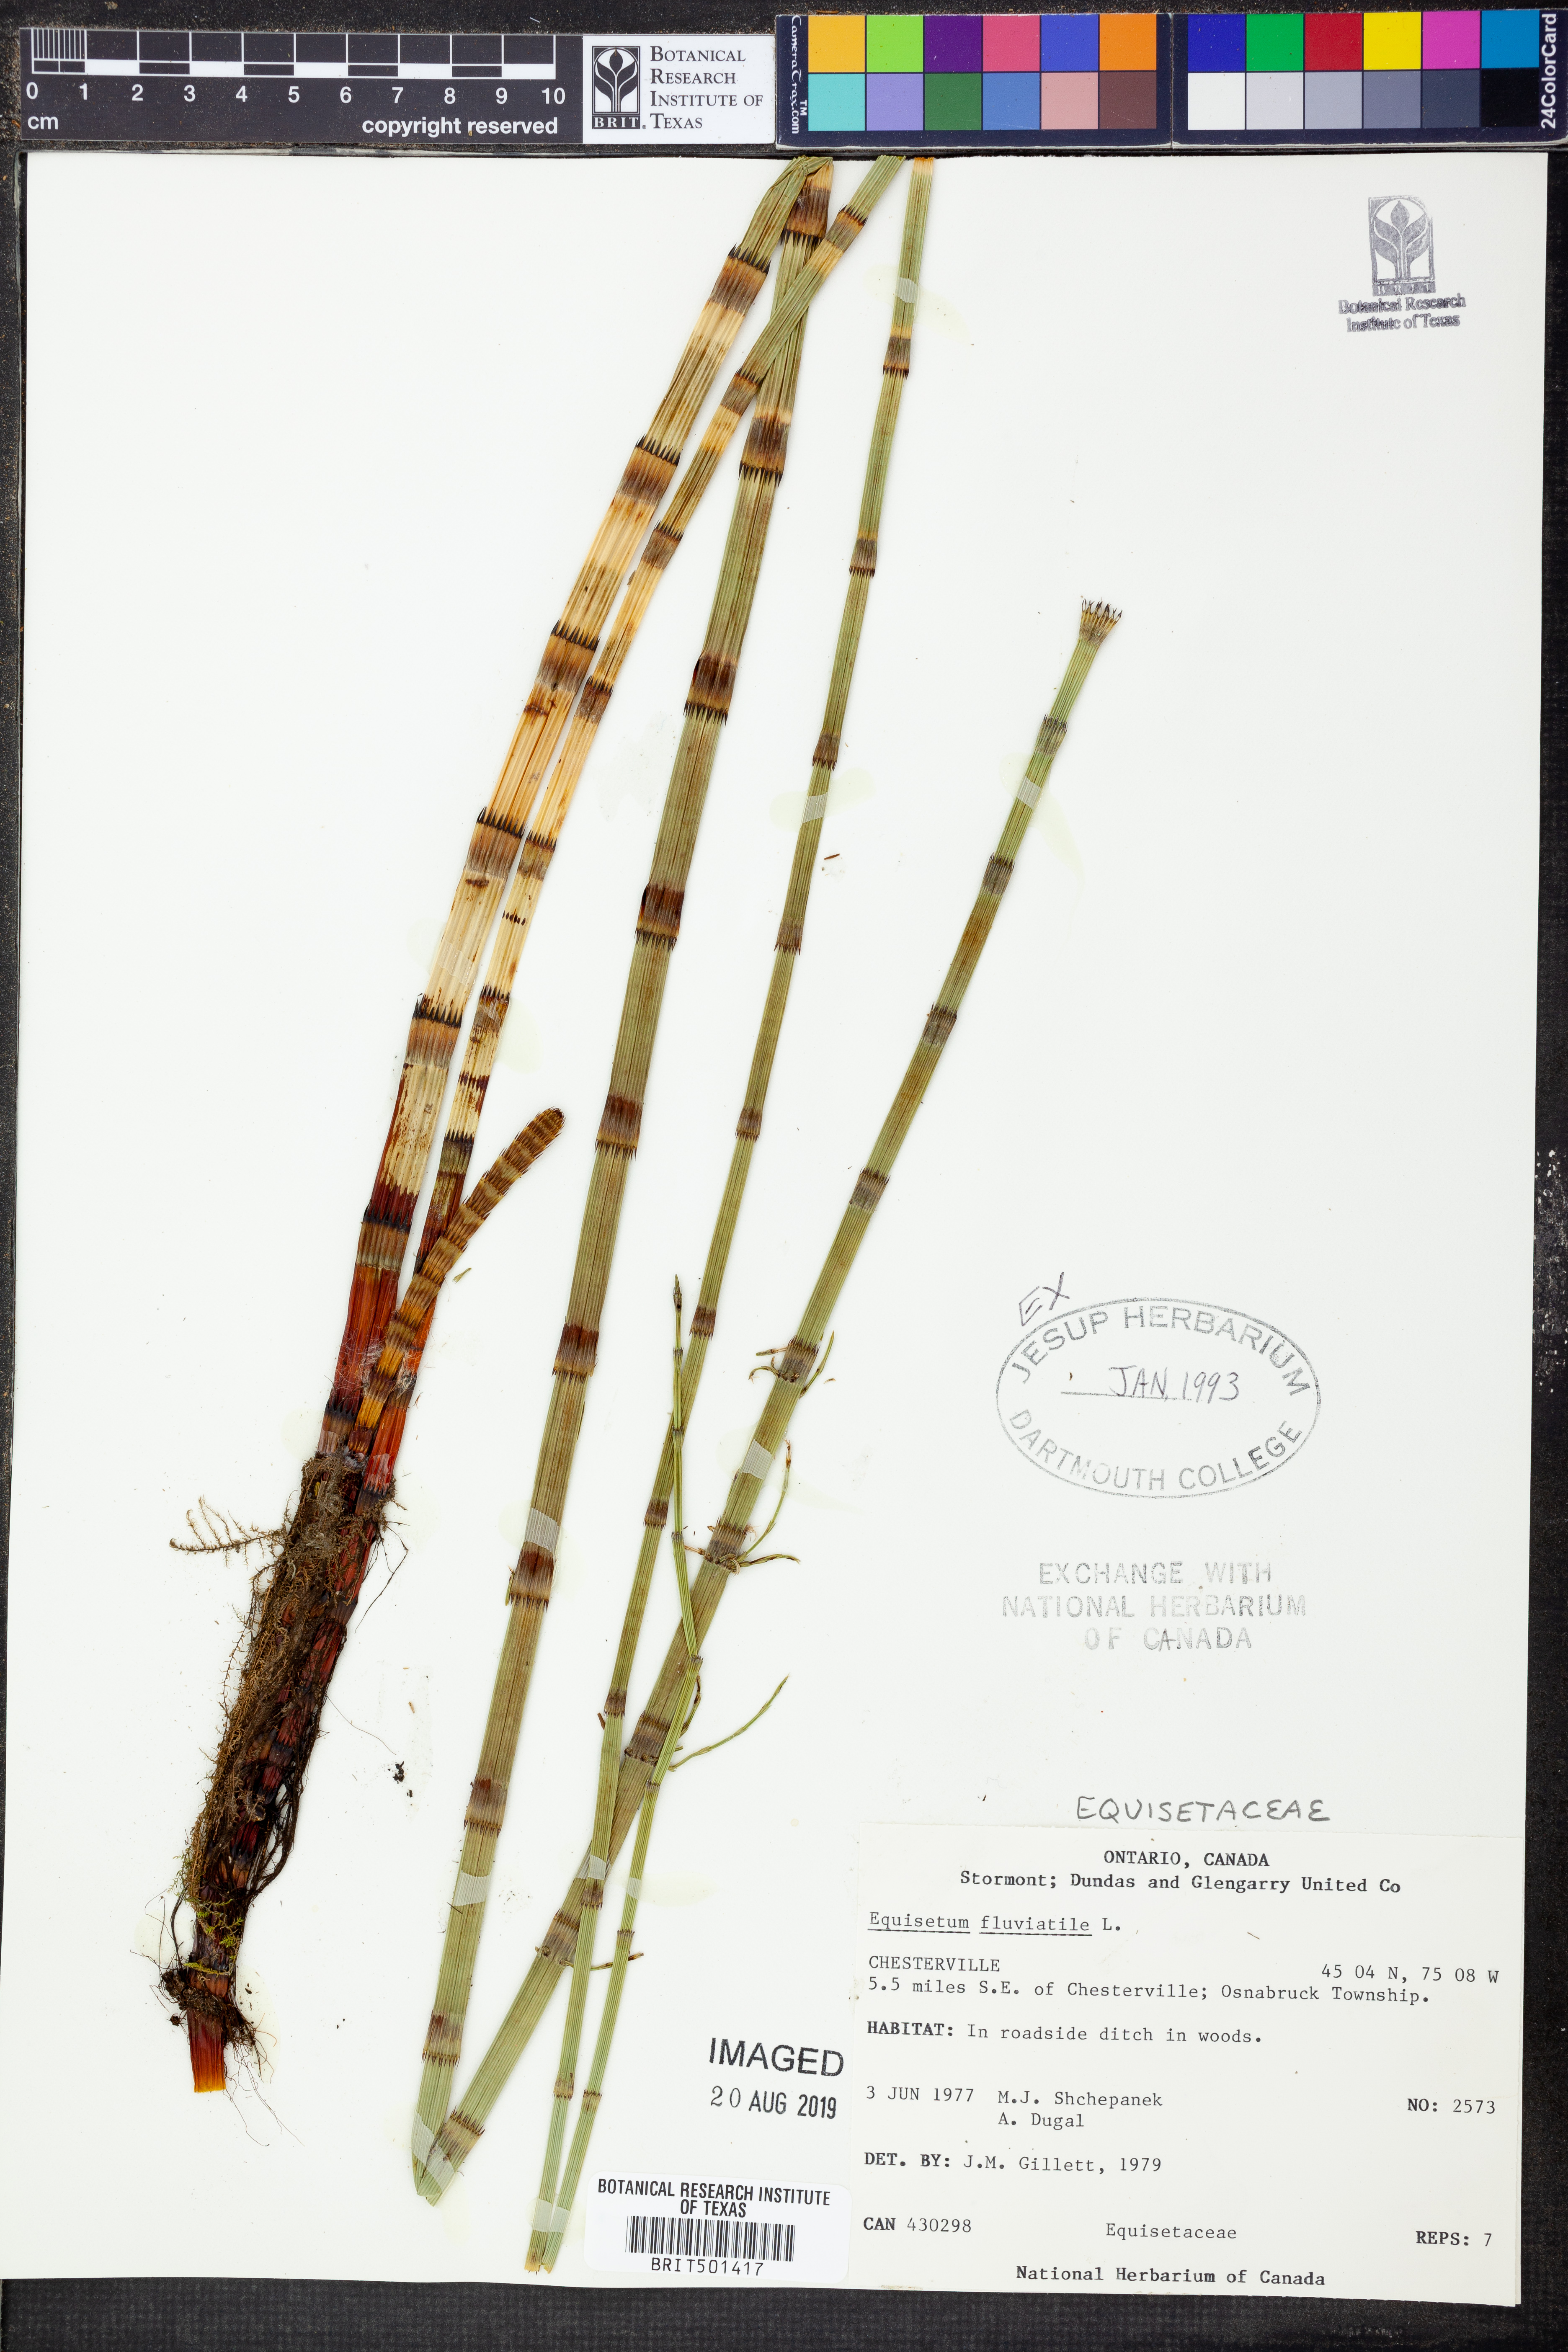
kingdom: Plantae
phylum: Tracheophyta
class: Polypodiopsida
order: Equisetales
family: Equisetaceae
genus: Equisetum
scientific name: Equisetum fluviatile
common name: Water horsetail
